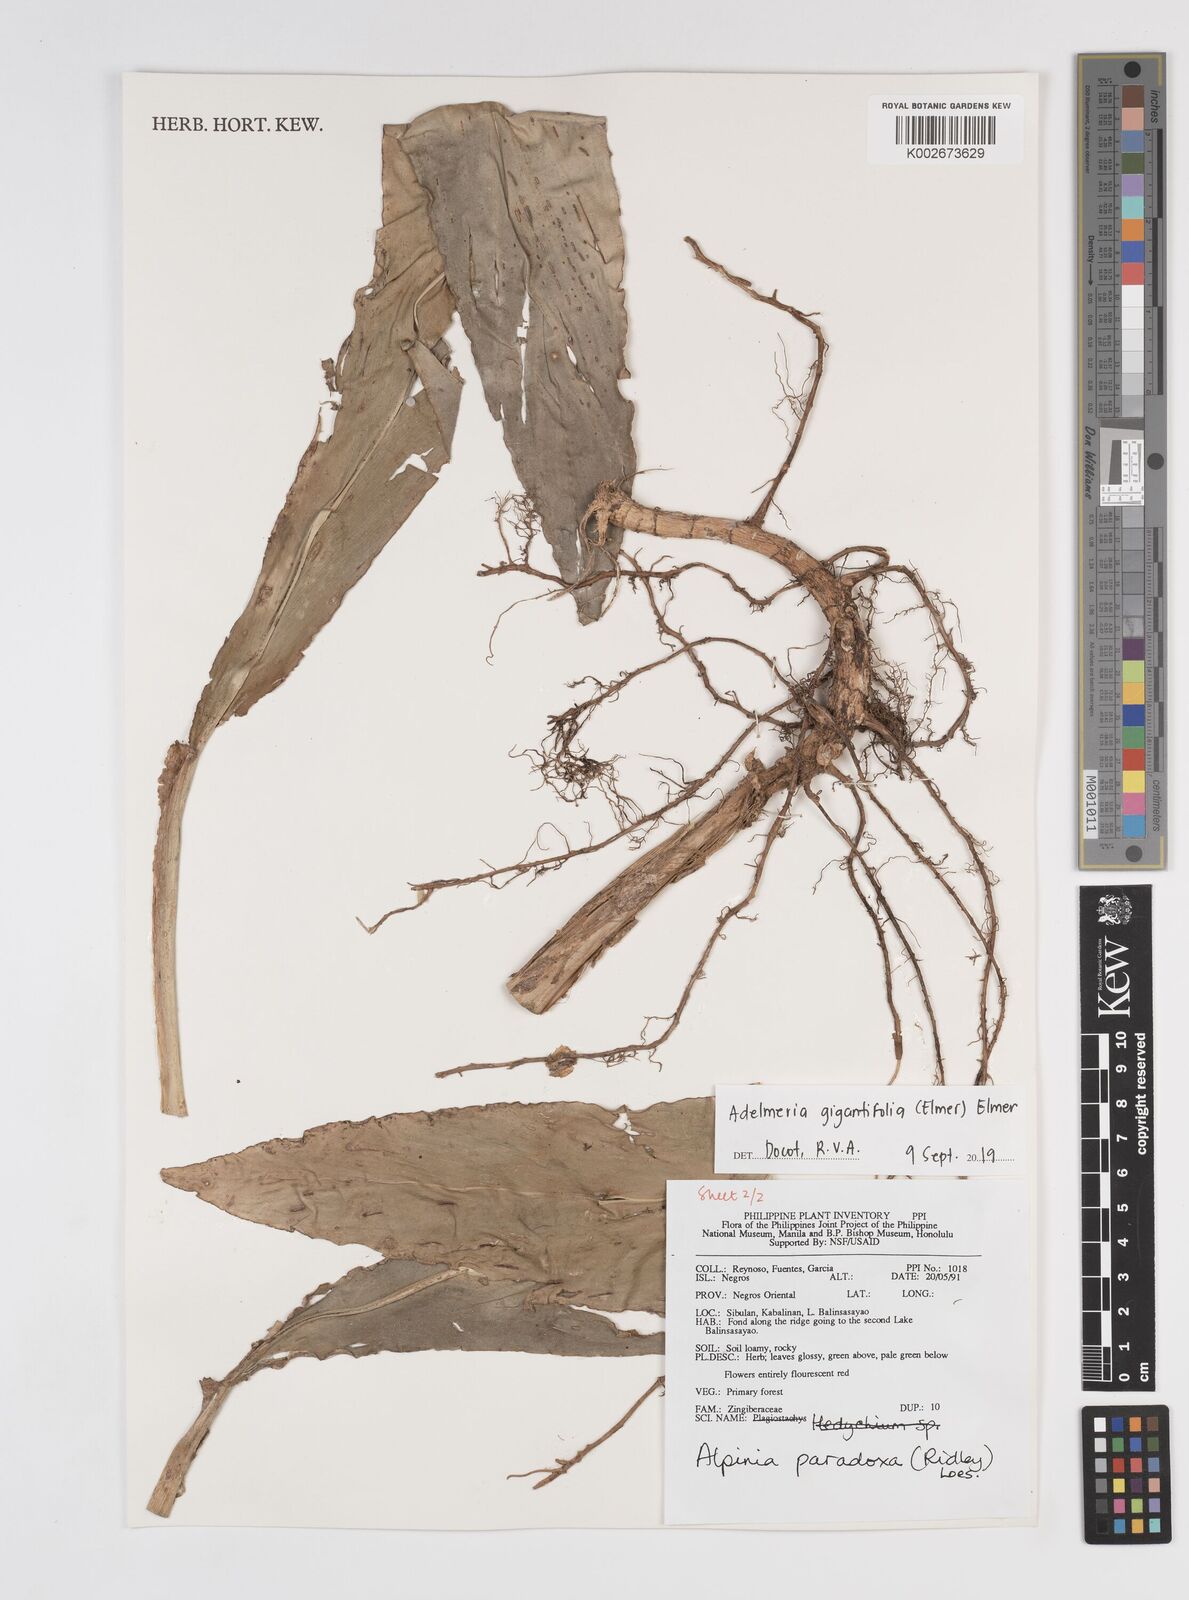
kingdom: Plantae
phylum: Tracheophyta
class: Liliopsida
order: Zingiberales
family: Zingiberaceae
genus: Adelmeria
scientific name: Adelmeria gigantifolia
